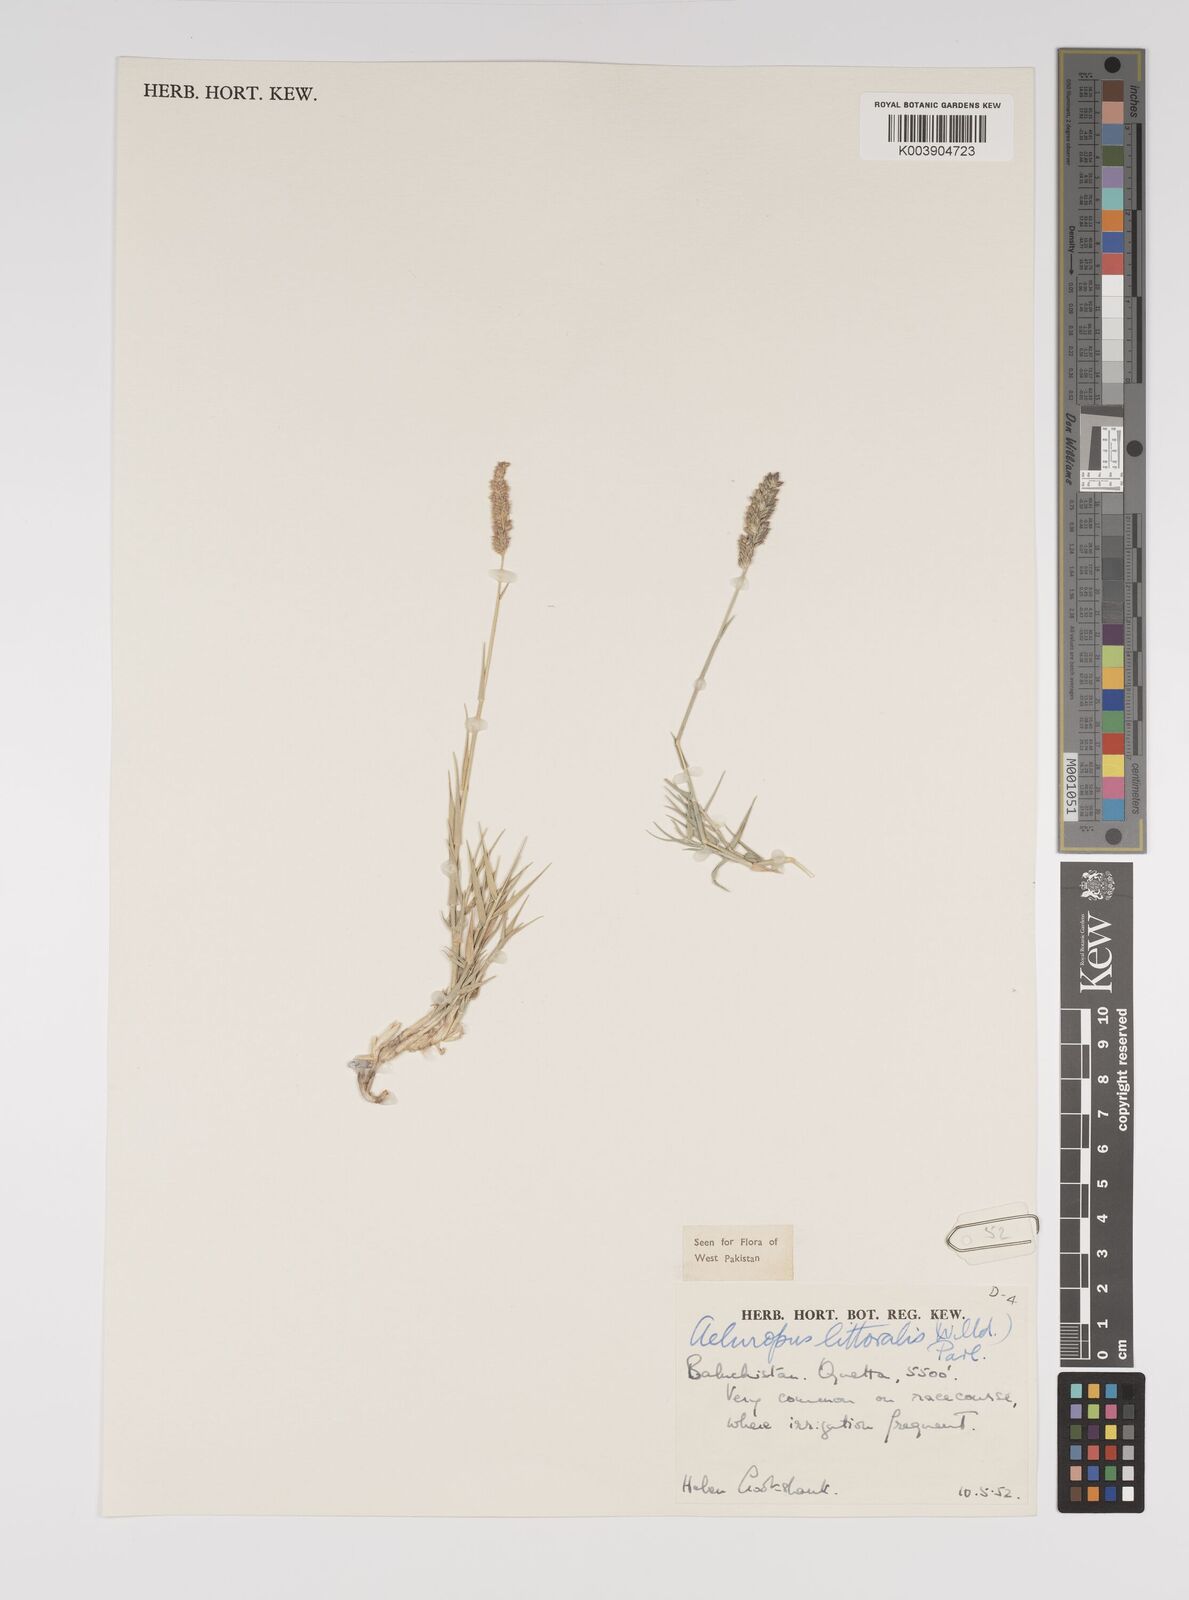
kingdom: Plantae
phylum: Tracheophyta
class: Liliopsida
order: Poales
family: Poaceae
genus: Aeluropus
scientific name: Aeluropus littoralis
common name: Indian walnut
